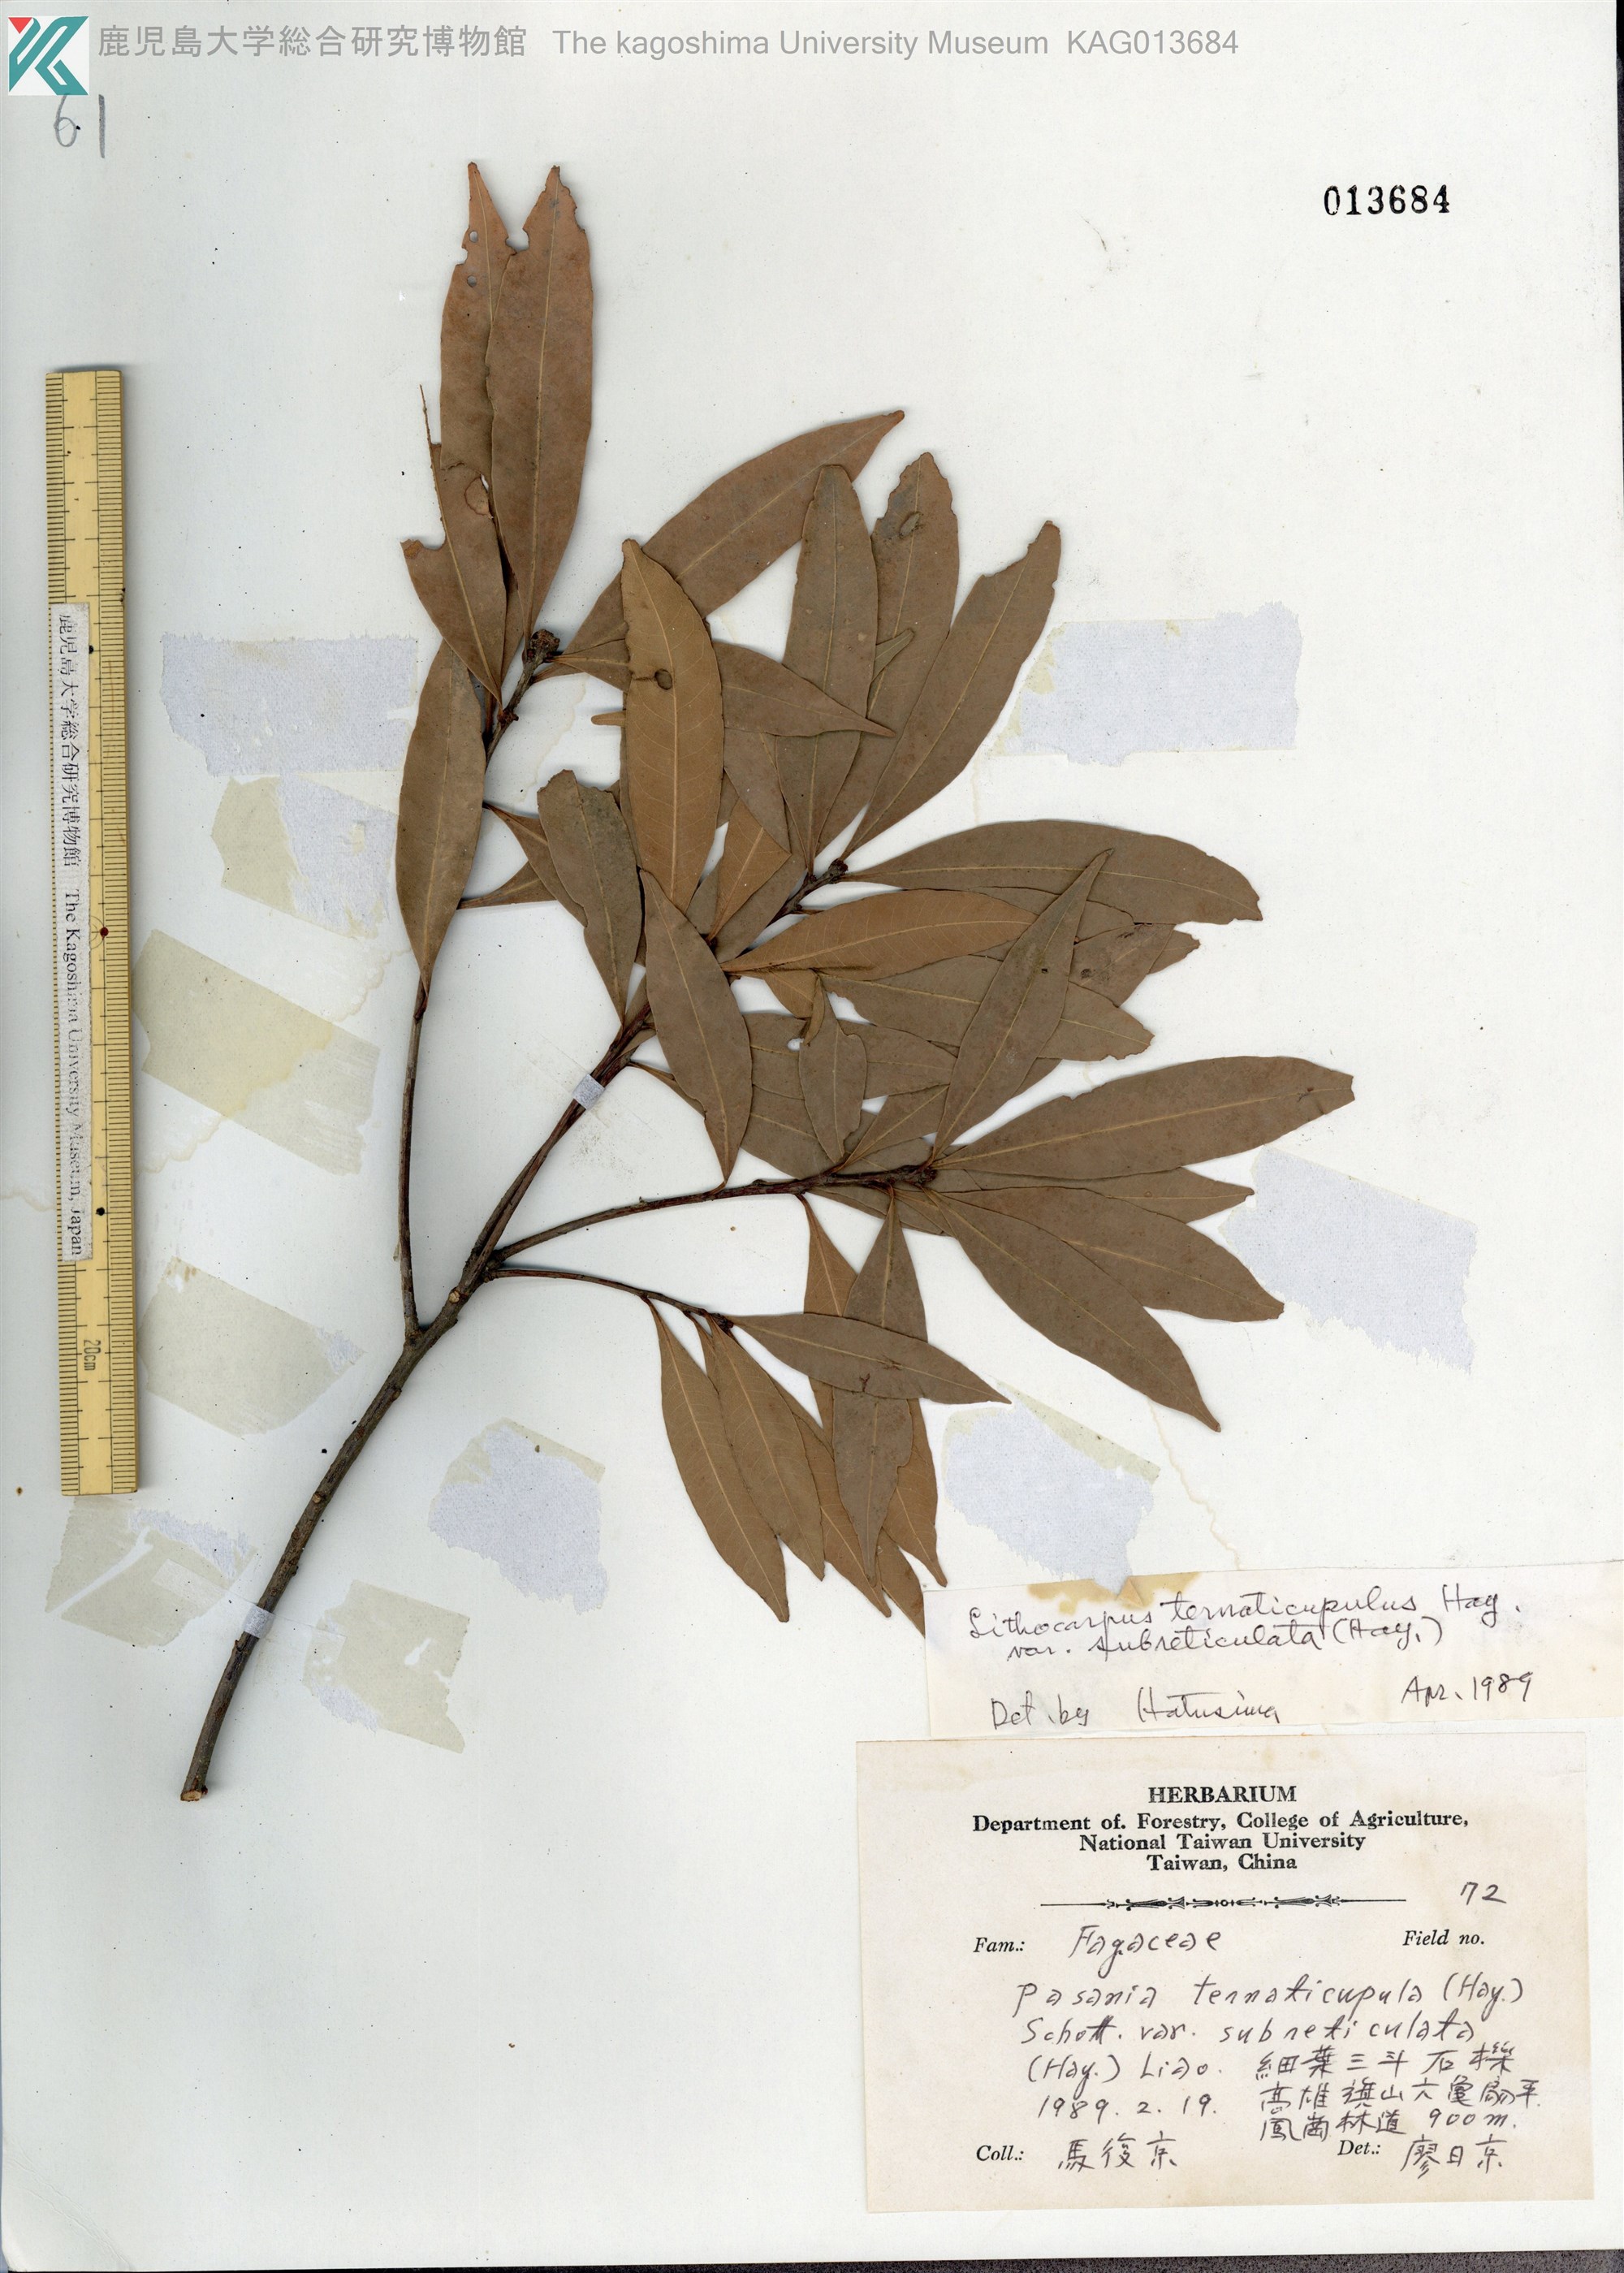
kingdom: Plantae
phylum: Tracheophyta
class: Magnoliopsida
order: Fagales
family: Fagaceae
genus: Lithocarpus
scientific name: Lithocarpus hancei
